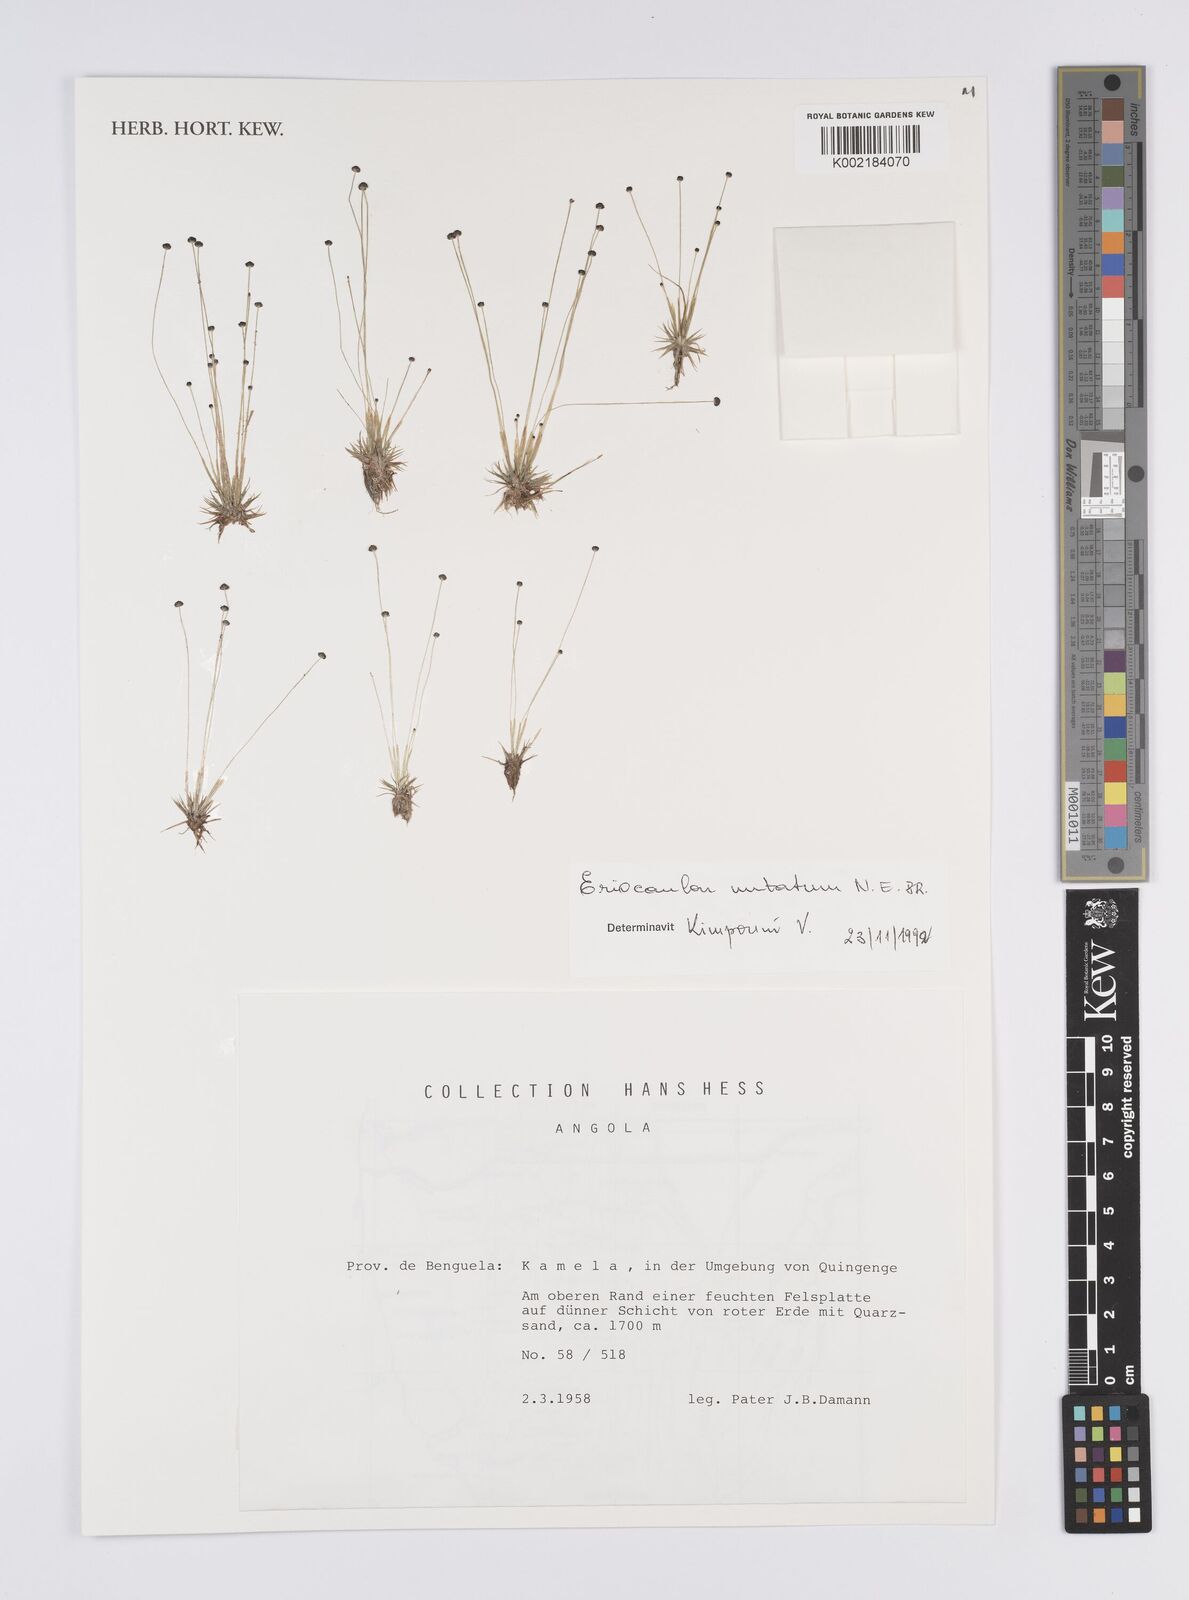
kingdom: Plantae
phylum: Tracheophyta
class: Liliopsida
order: Poales
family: Eriocaulaceae
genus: Eriocaulon
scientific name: Eriocaulon mutatum
